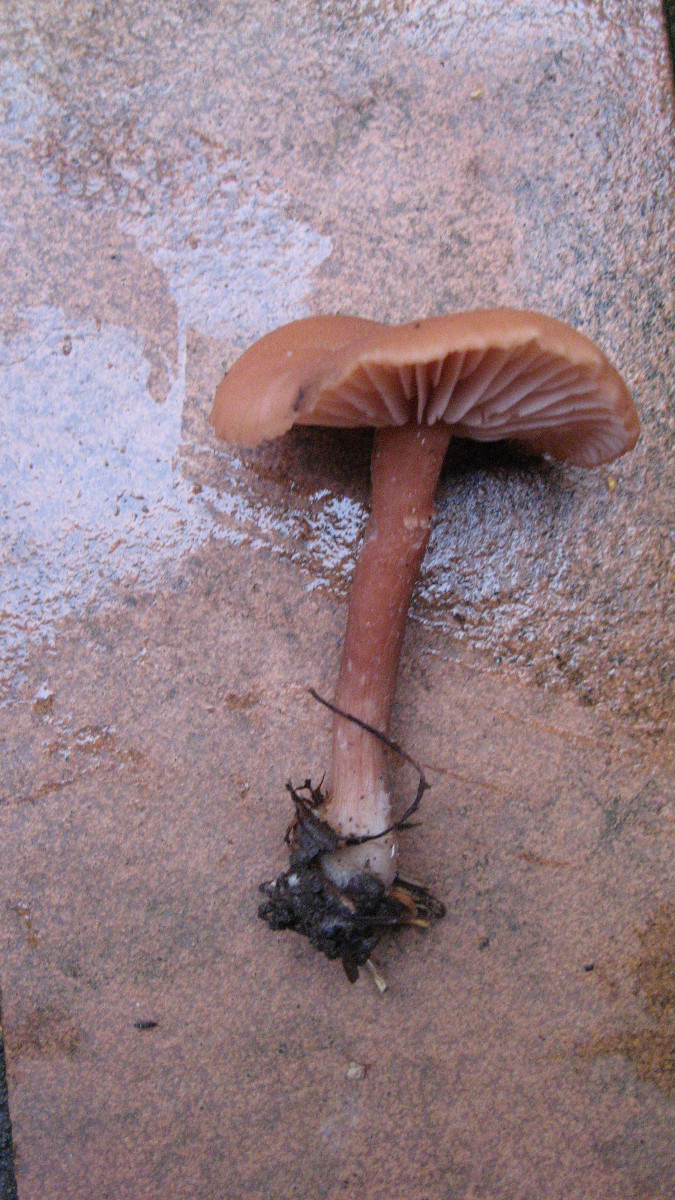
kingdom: Fungi
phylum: Basidiomycota
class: Agaricomycetes
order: Agaricales
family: Hydnangiaceae
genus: Laccaria
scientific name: Laccaria laccata
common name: rød ametysthat
